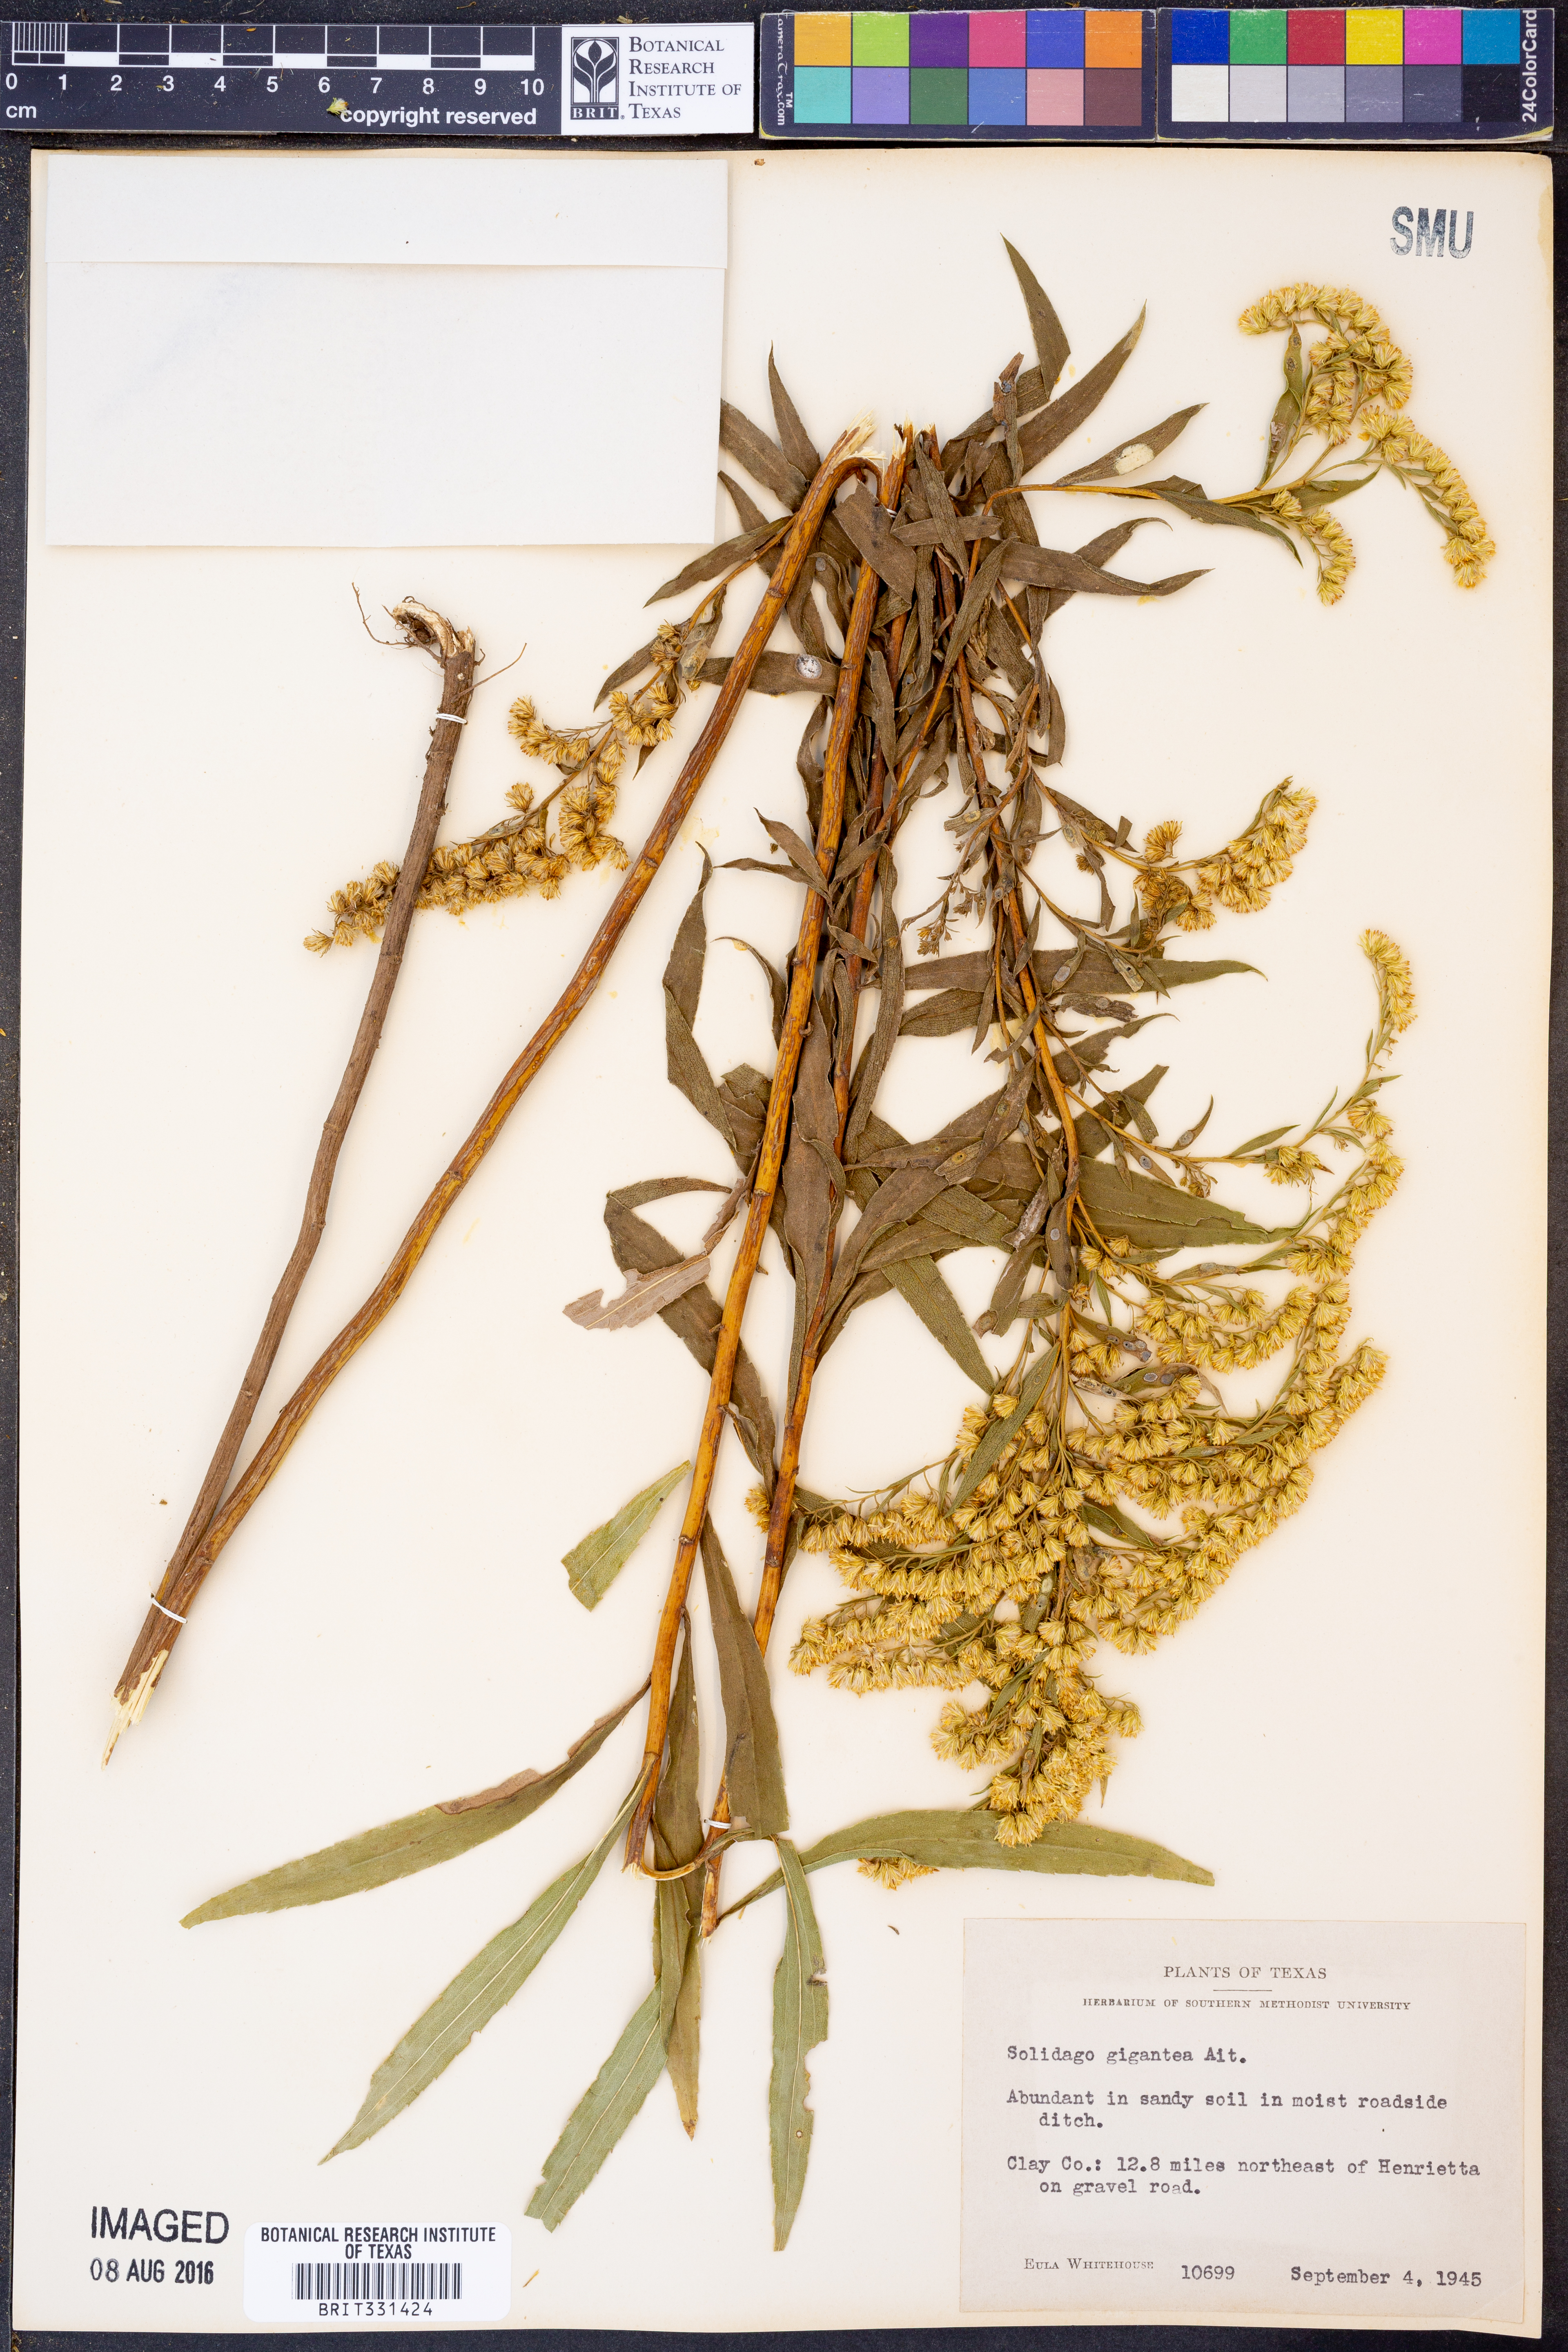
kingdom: Plantae
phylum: Tracheophyta
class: Magnoliopsida
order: Asterales
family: Asteraceae
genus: Solidago
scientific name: Solidago gigantea
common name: Giant goldenrod
